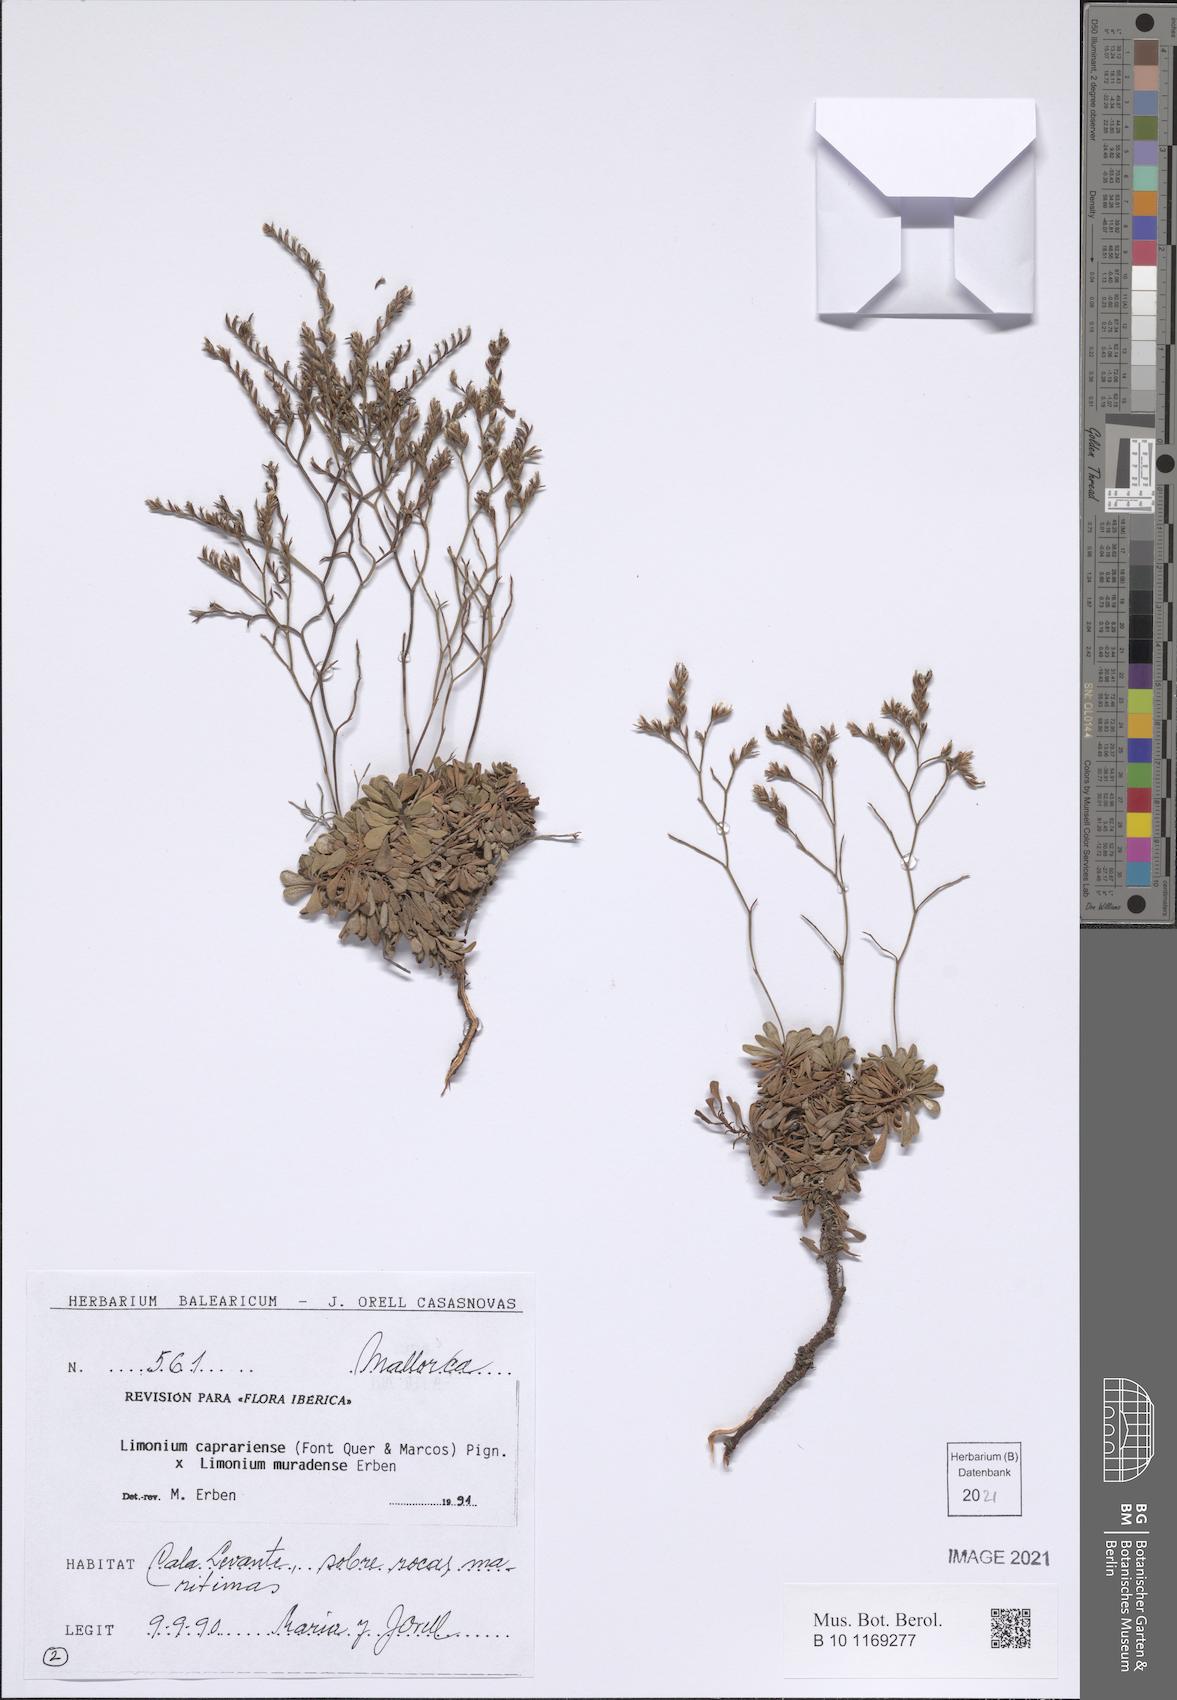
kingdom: Plantae
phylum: Tracheophyta
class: Magnoliopsida
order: Caryophyllales
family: Plumbaginaceae
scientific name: Plumbaginaceae
